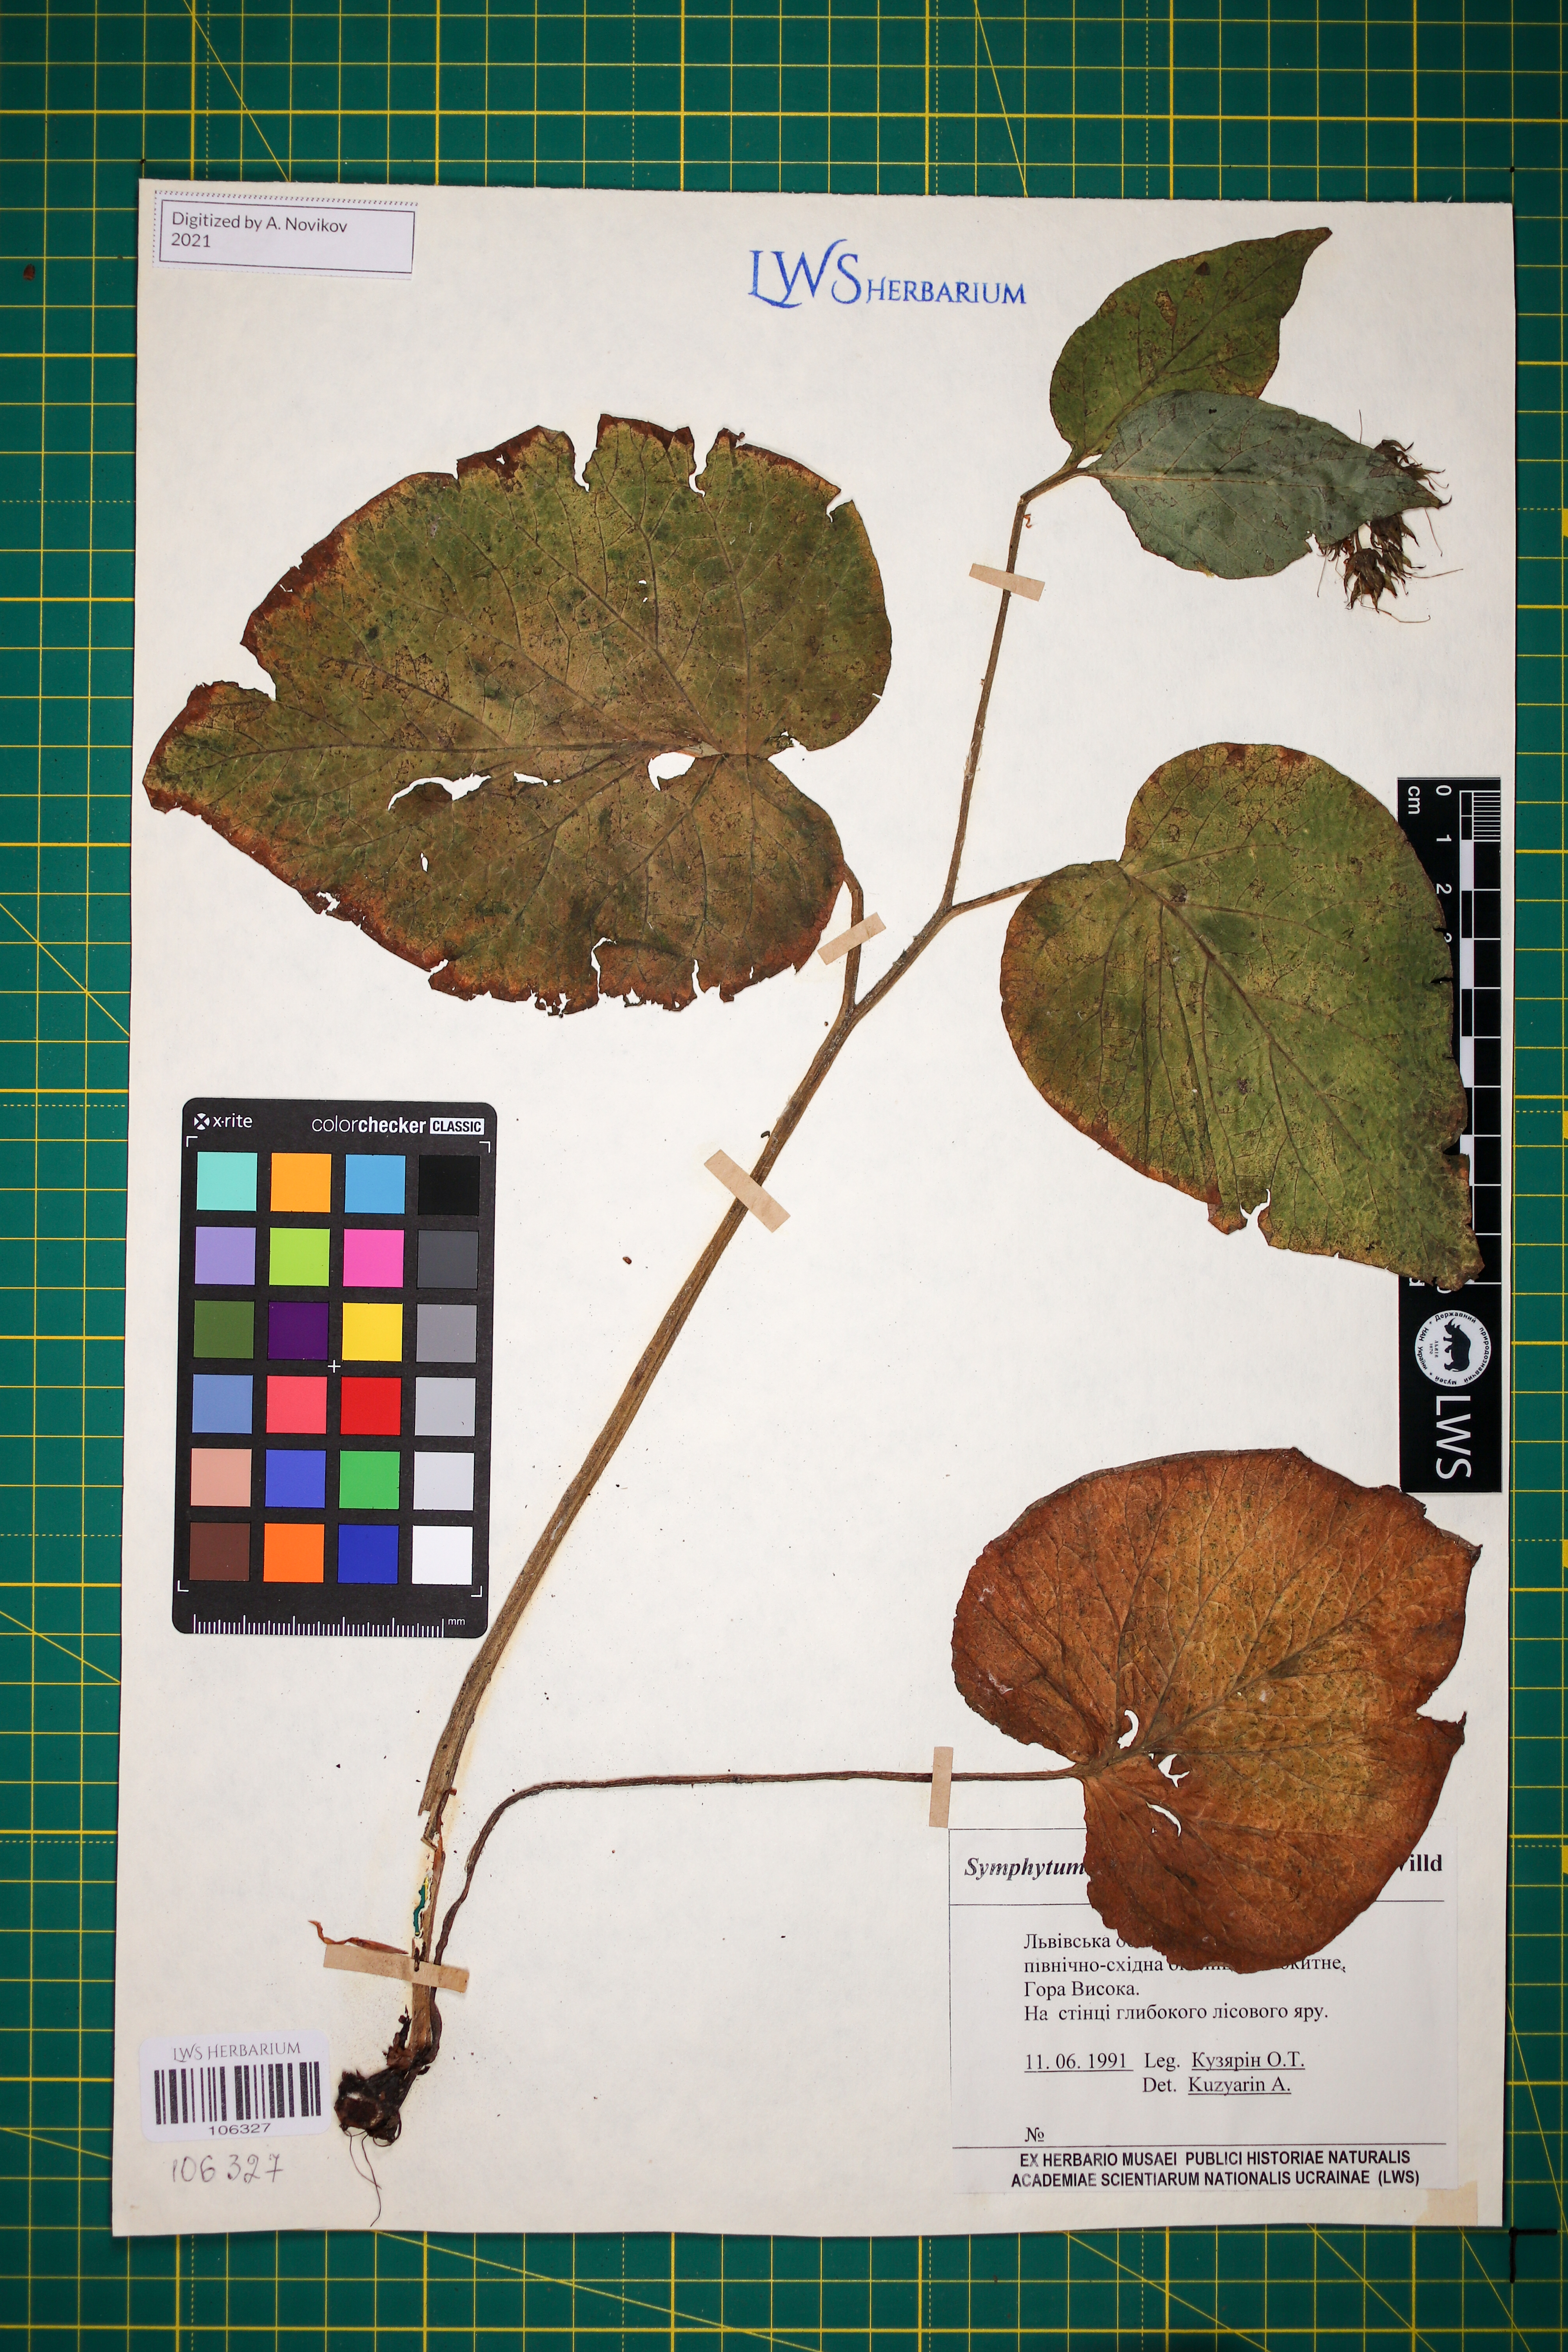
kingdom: Plantae
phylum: Tracheophyta
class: Magnoliopsida
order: Boraginales
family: Boraginaceae
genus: Symphytum
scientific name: Symphytum cordatum
